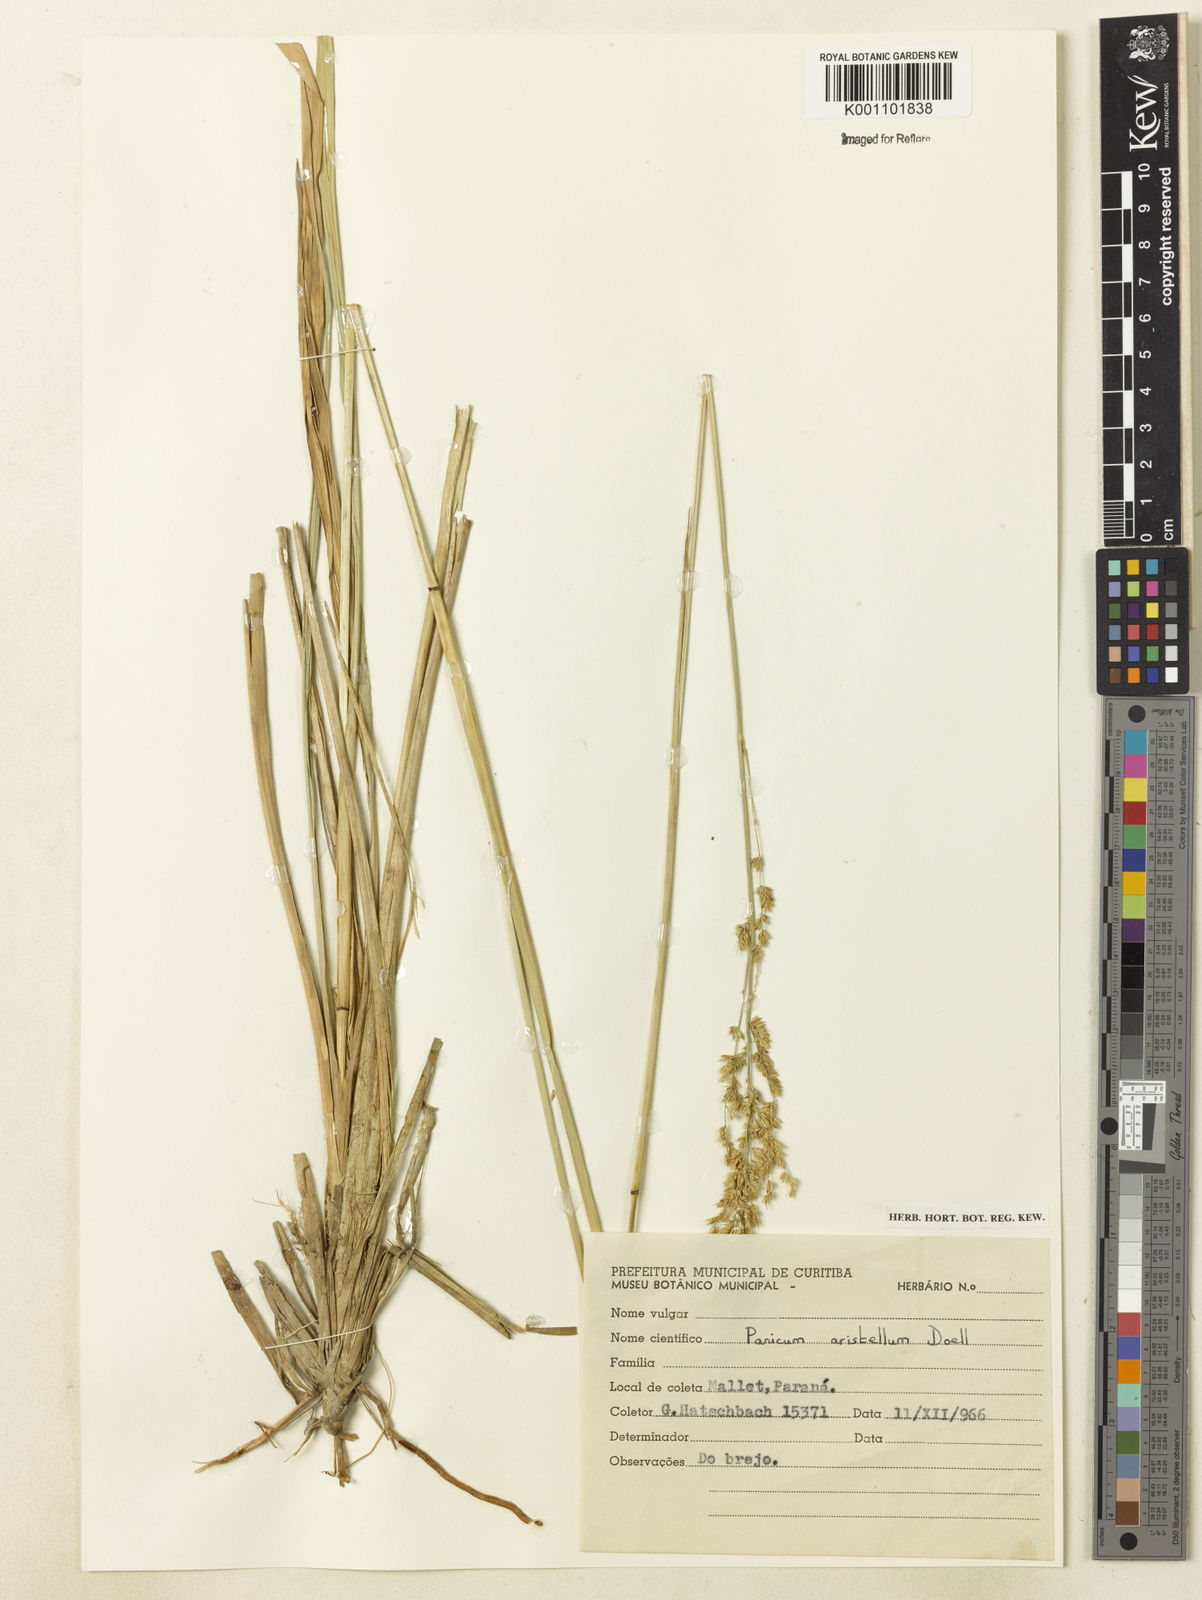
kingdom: Plantae
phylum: Tracheophyta
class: Liliopsida
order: Poales
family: Poaceae
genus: Panicum
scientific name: Panicum
